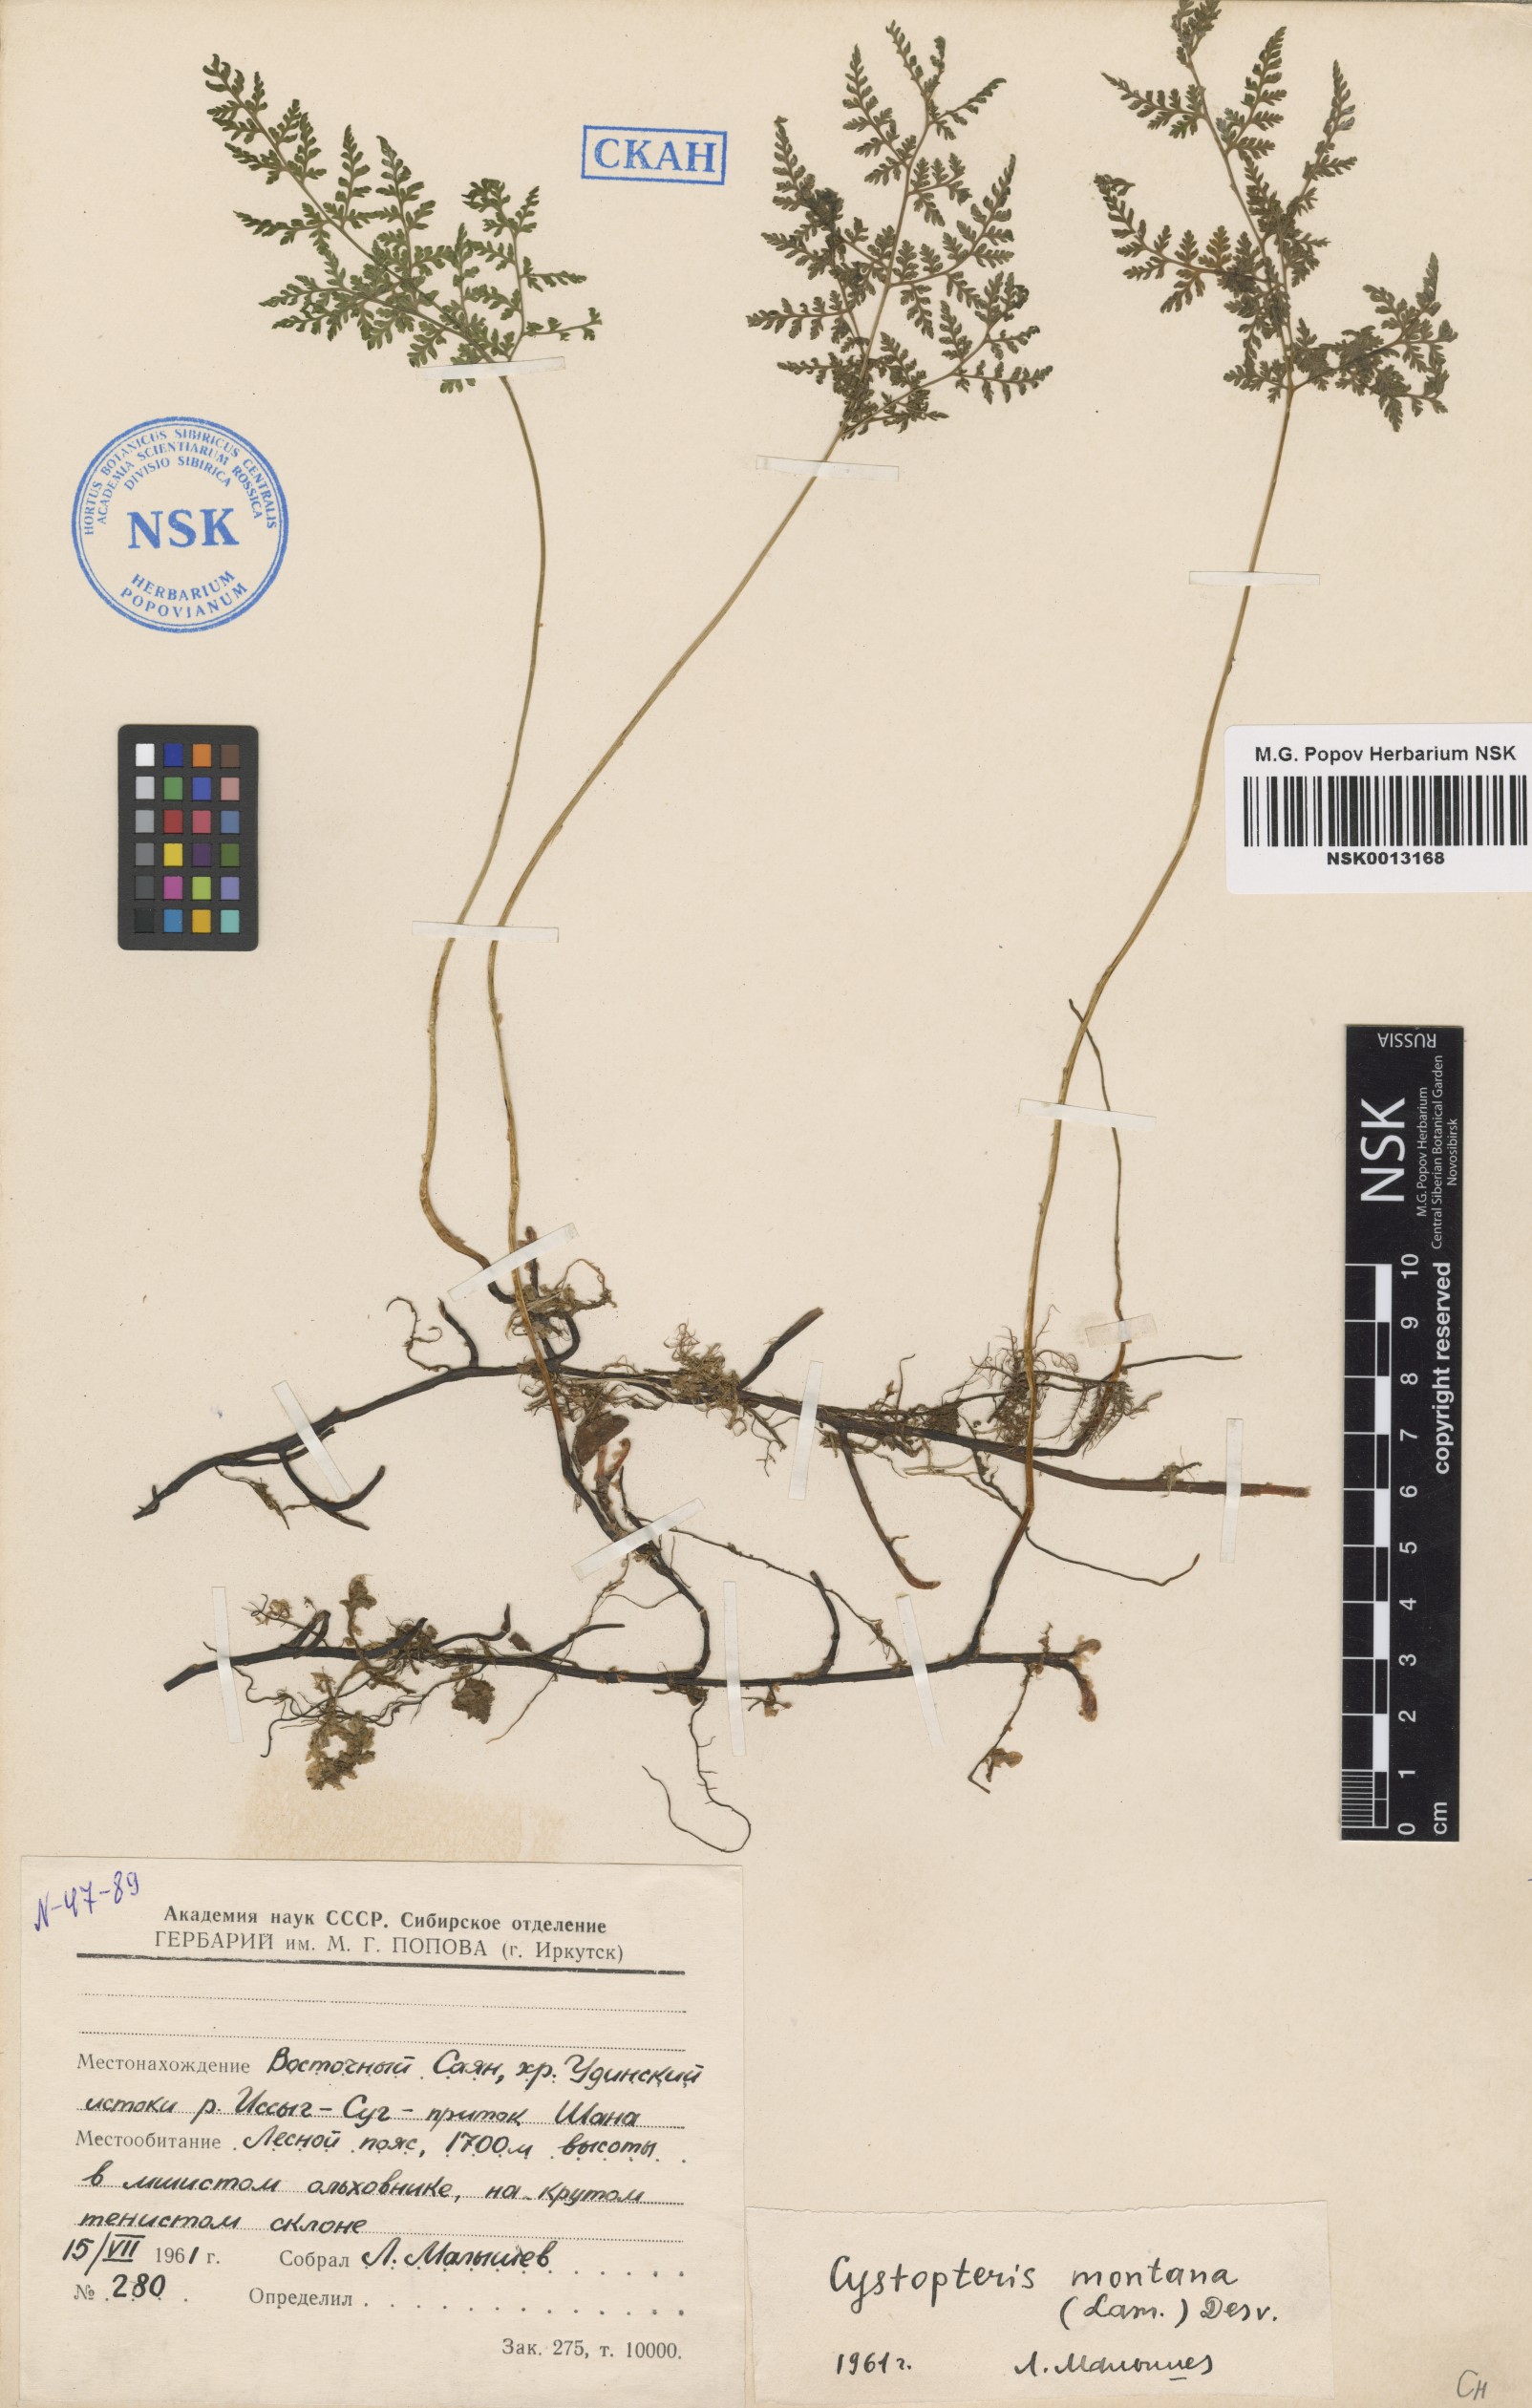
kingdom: Plantae
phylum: Tracheophyta
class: Polypodiopsida
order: Polypodiales
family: Cystopteridaceae
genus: Cystopteris
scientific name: Cystopteris montana
